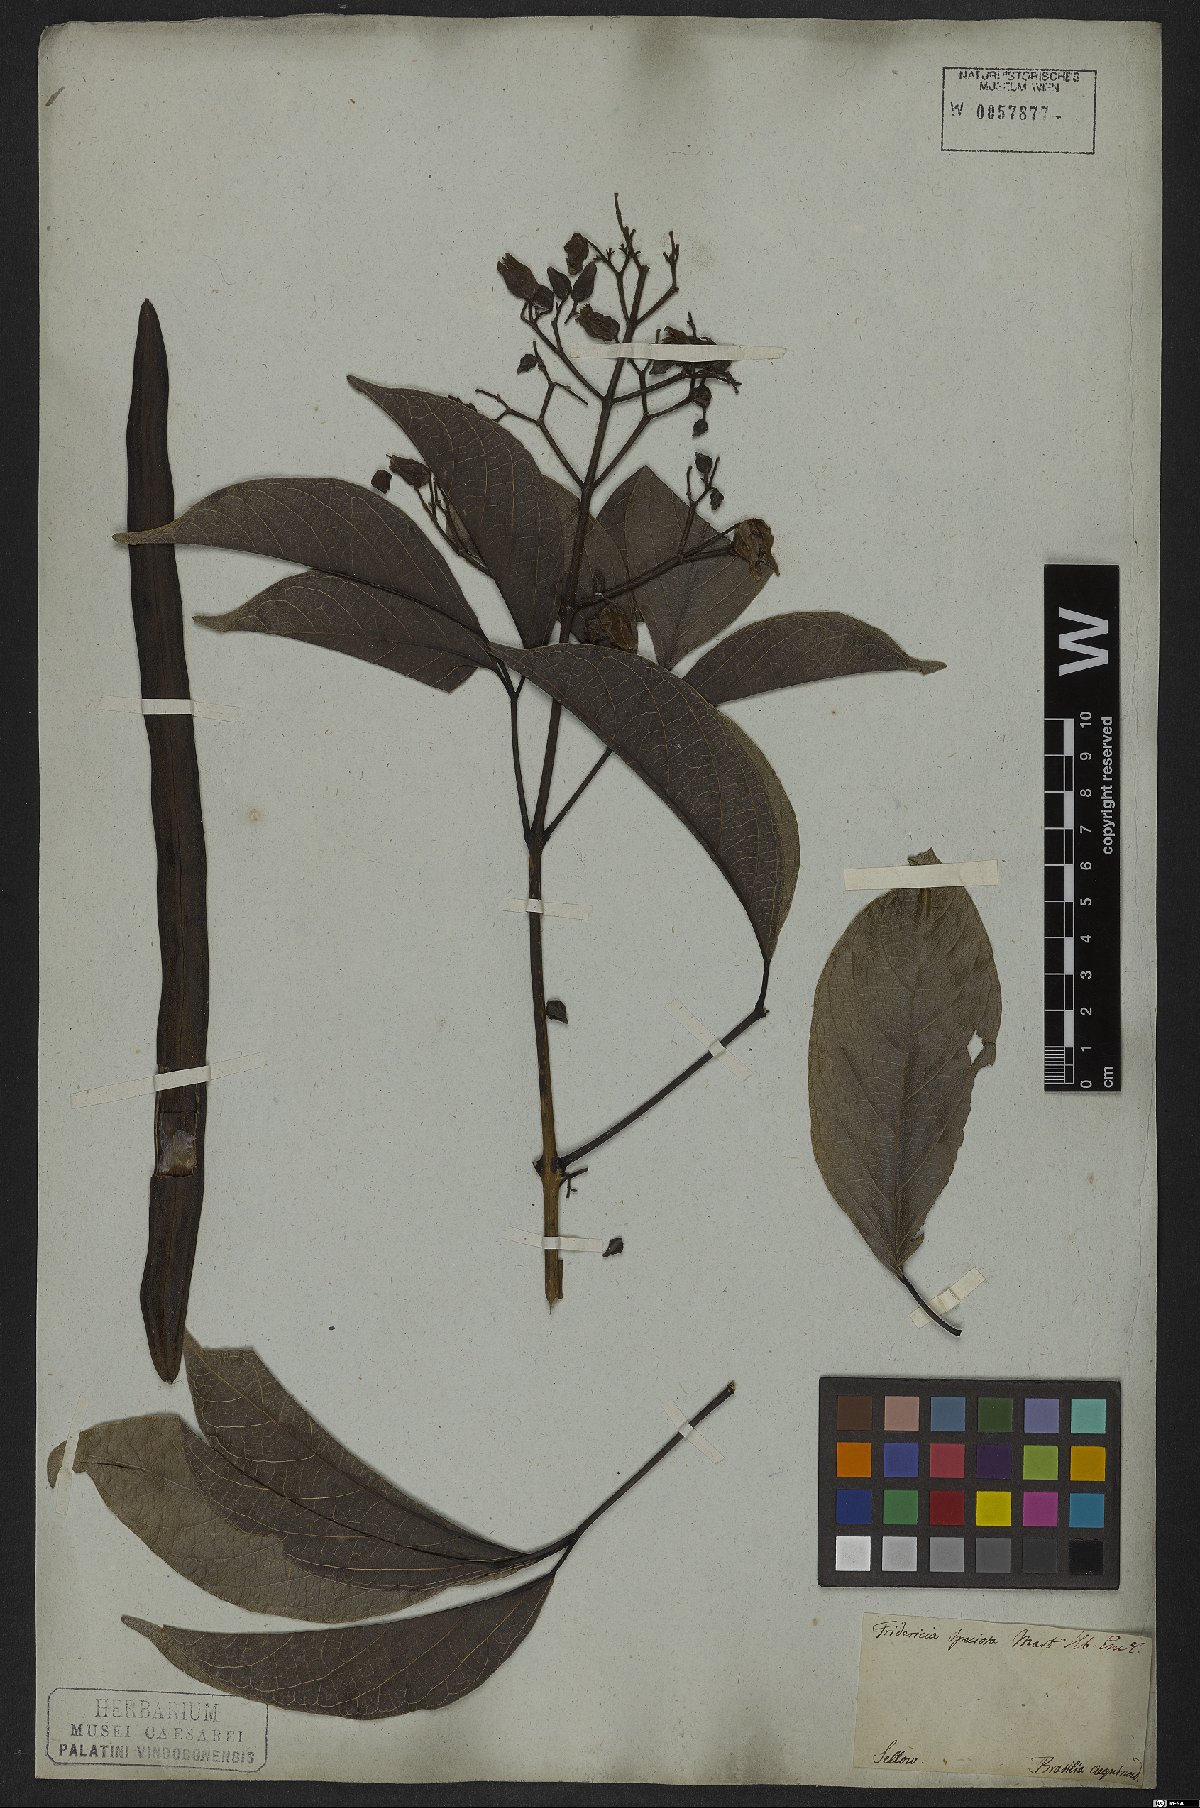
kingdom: Plantae
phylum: Tracheophyta
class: Magnoliopsida
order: Lamiales
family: Bignoniaceae
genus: Fridericia
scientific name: Fridericia speciosa
